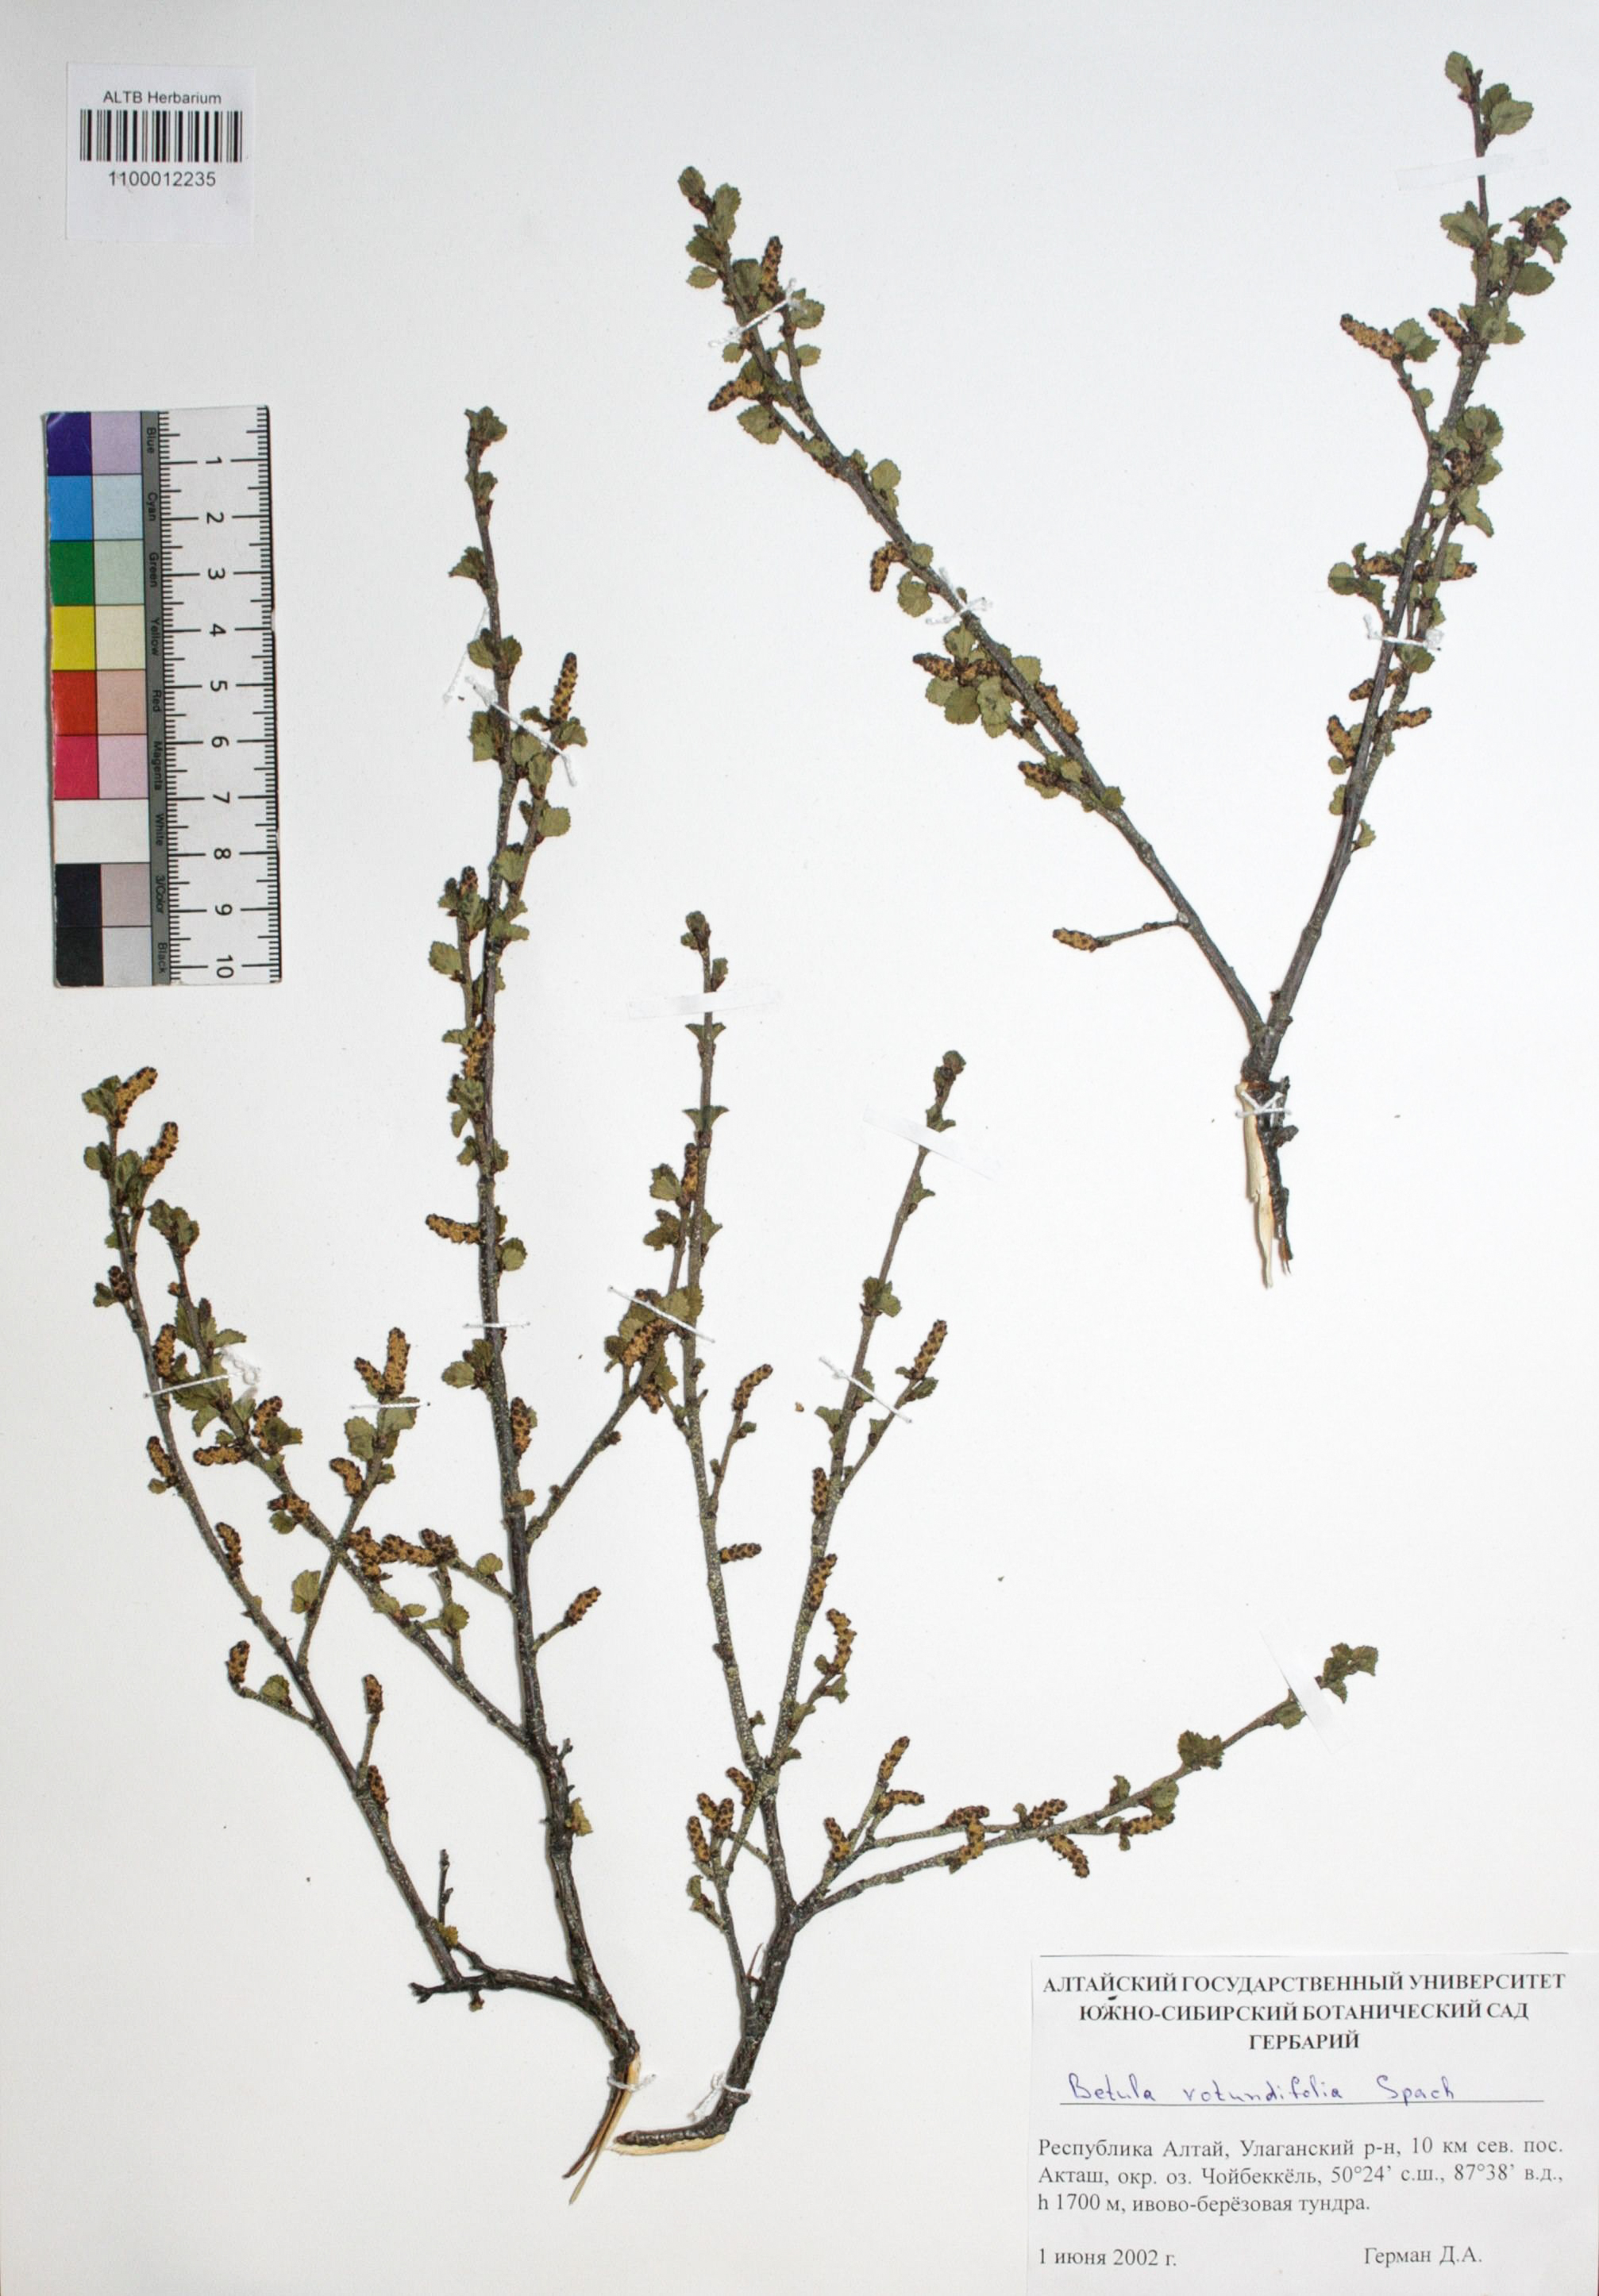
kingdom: Plantae
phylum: Tracheophyta
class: Magnoliopsida
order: Fagales
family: Betulaceae
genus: Betula
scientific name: Betula glandulosa
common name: Dwarf birch
